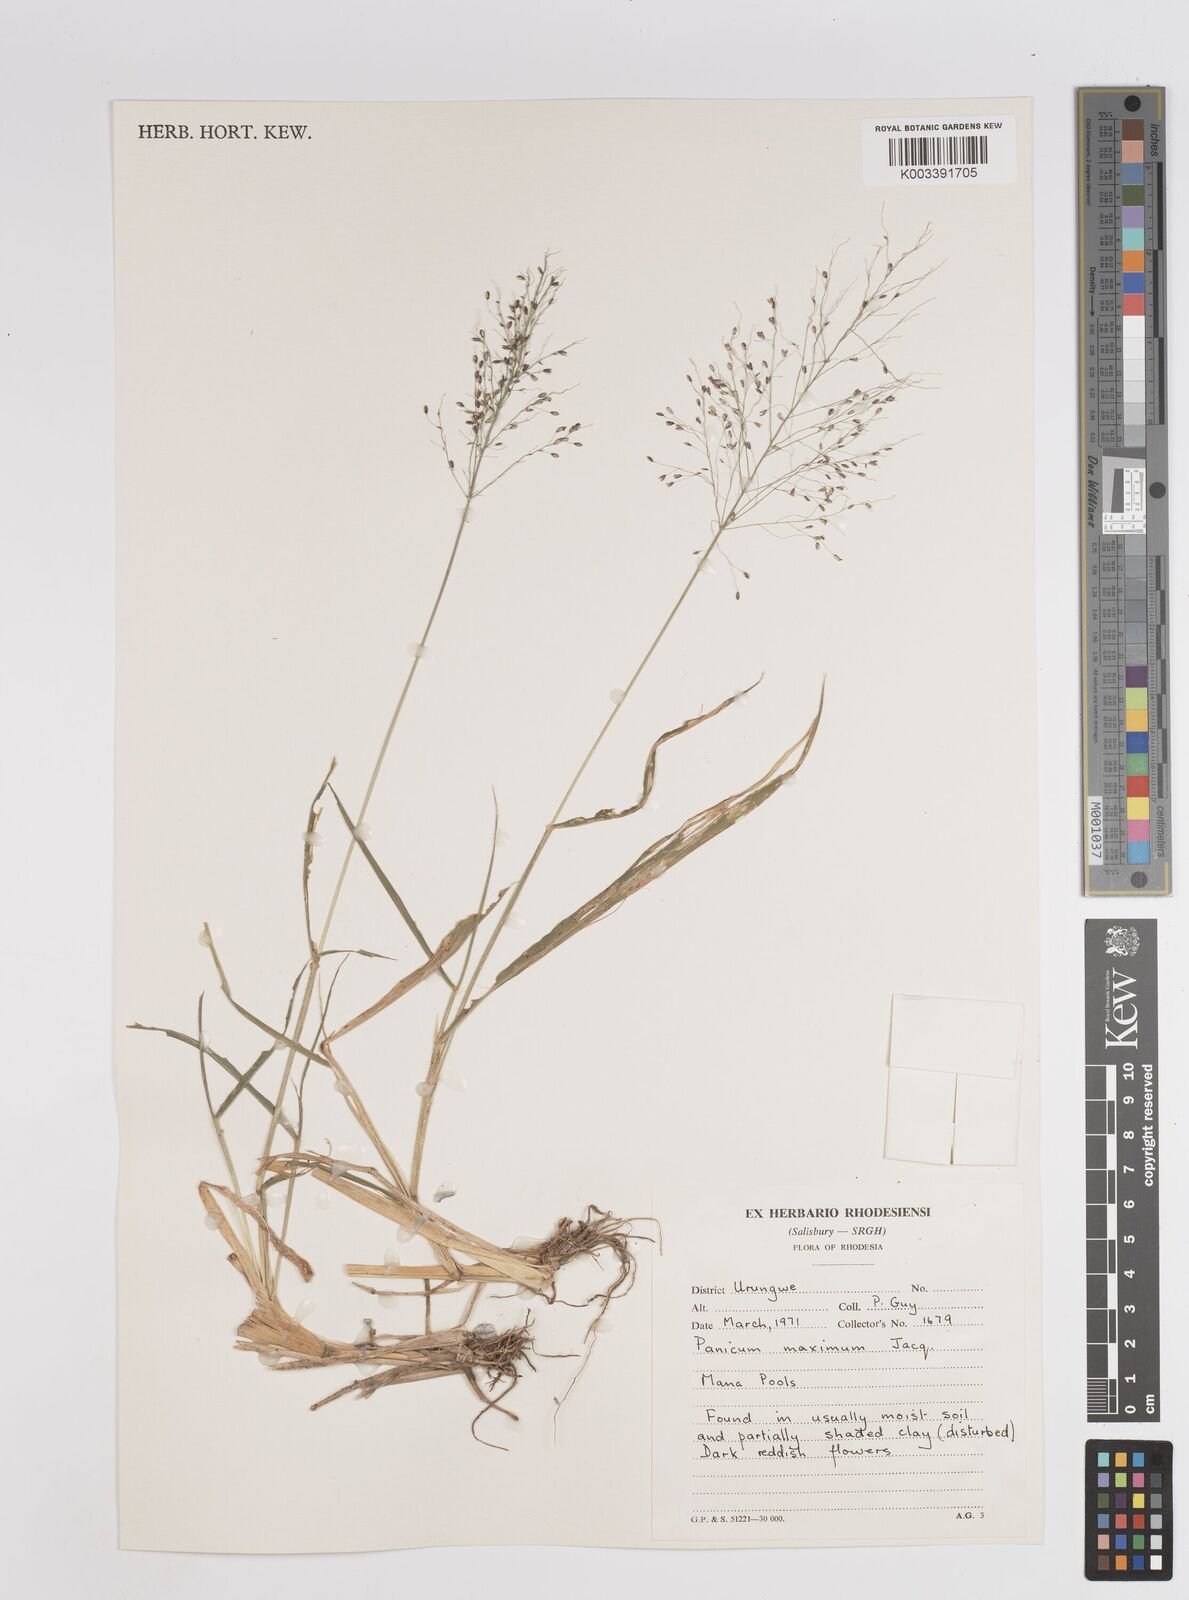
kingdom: Plantae
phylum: Tracheophyta
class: Liliopsida
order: Poales
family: Poaceae
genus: Megathyrsus
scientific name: Megathyrsus maximus
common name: Guineagrass
